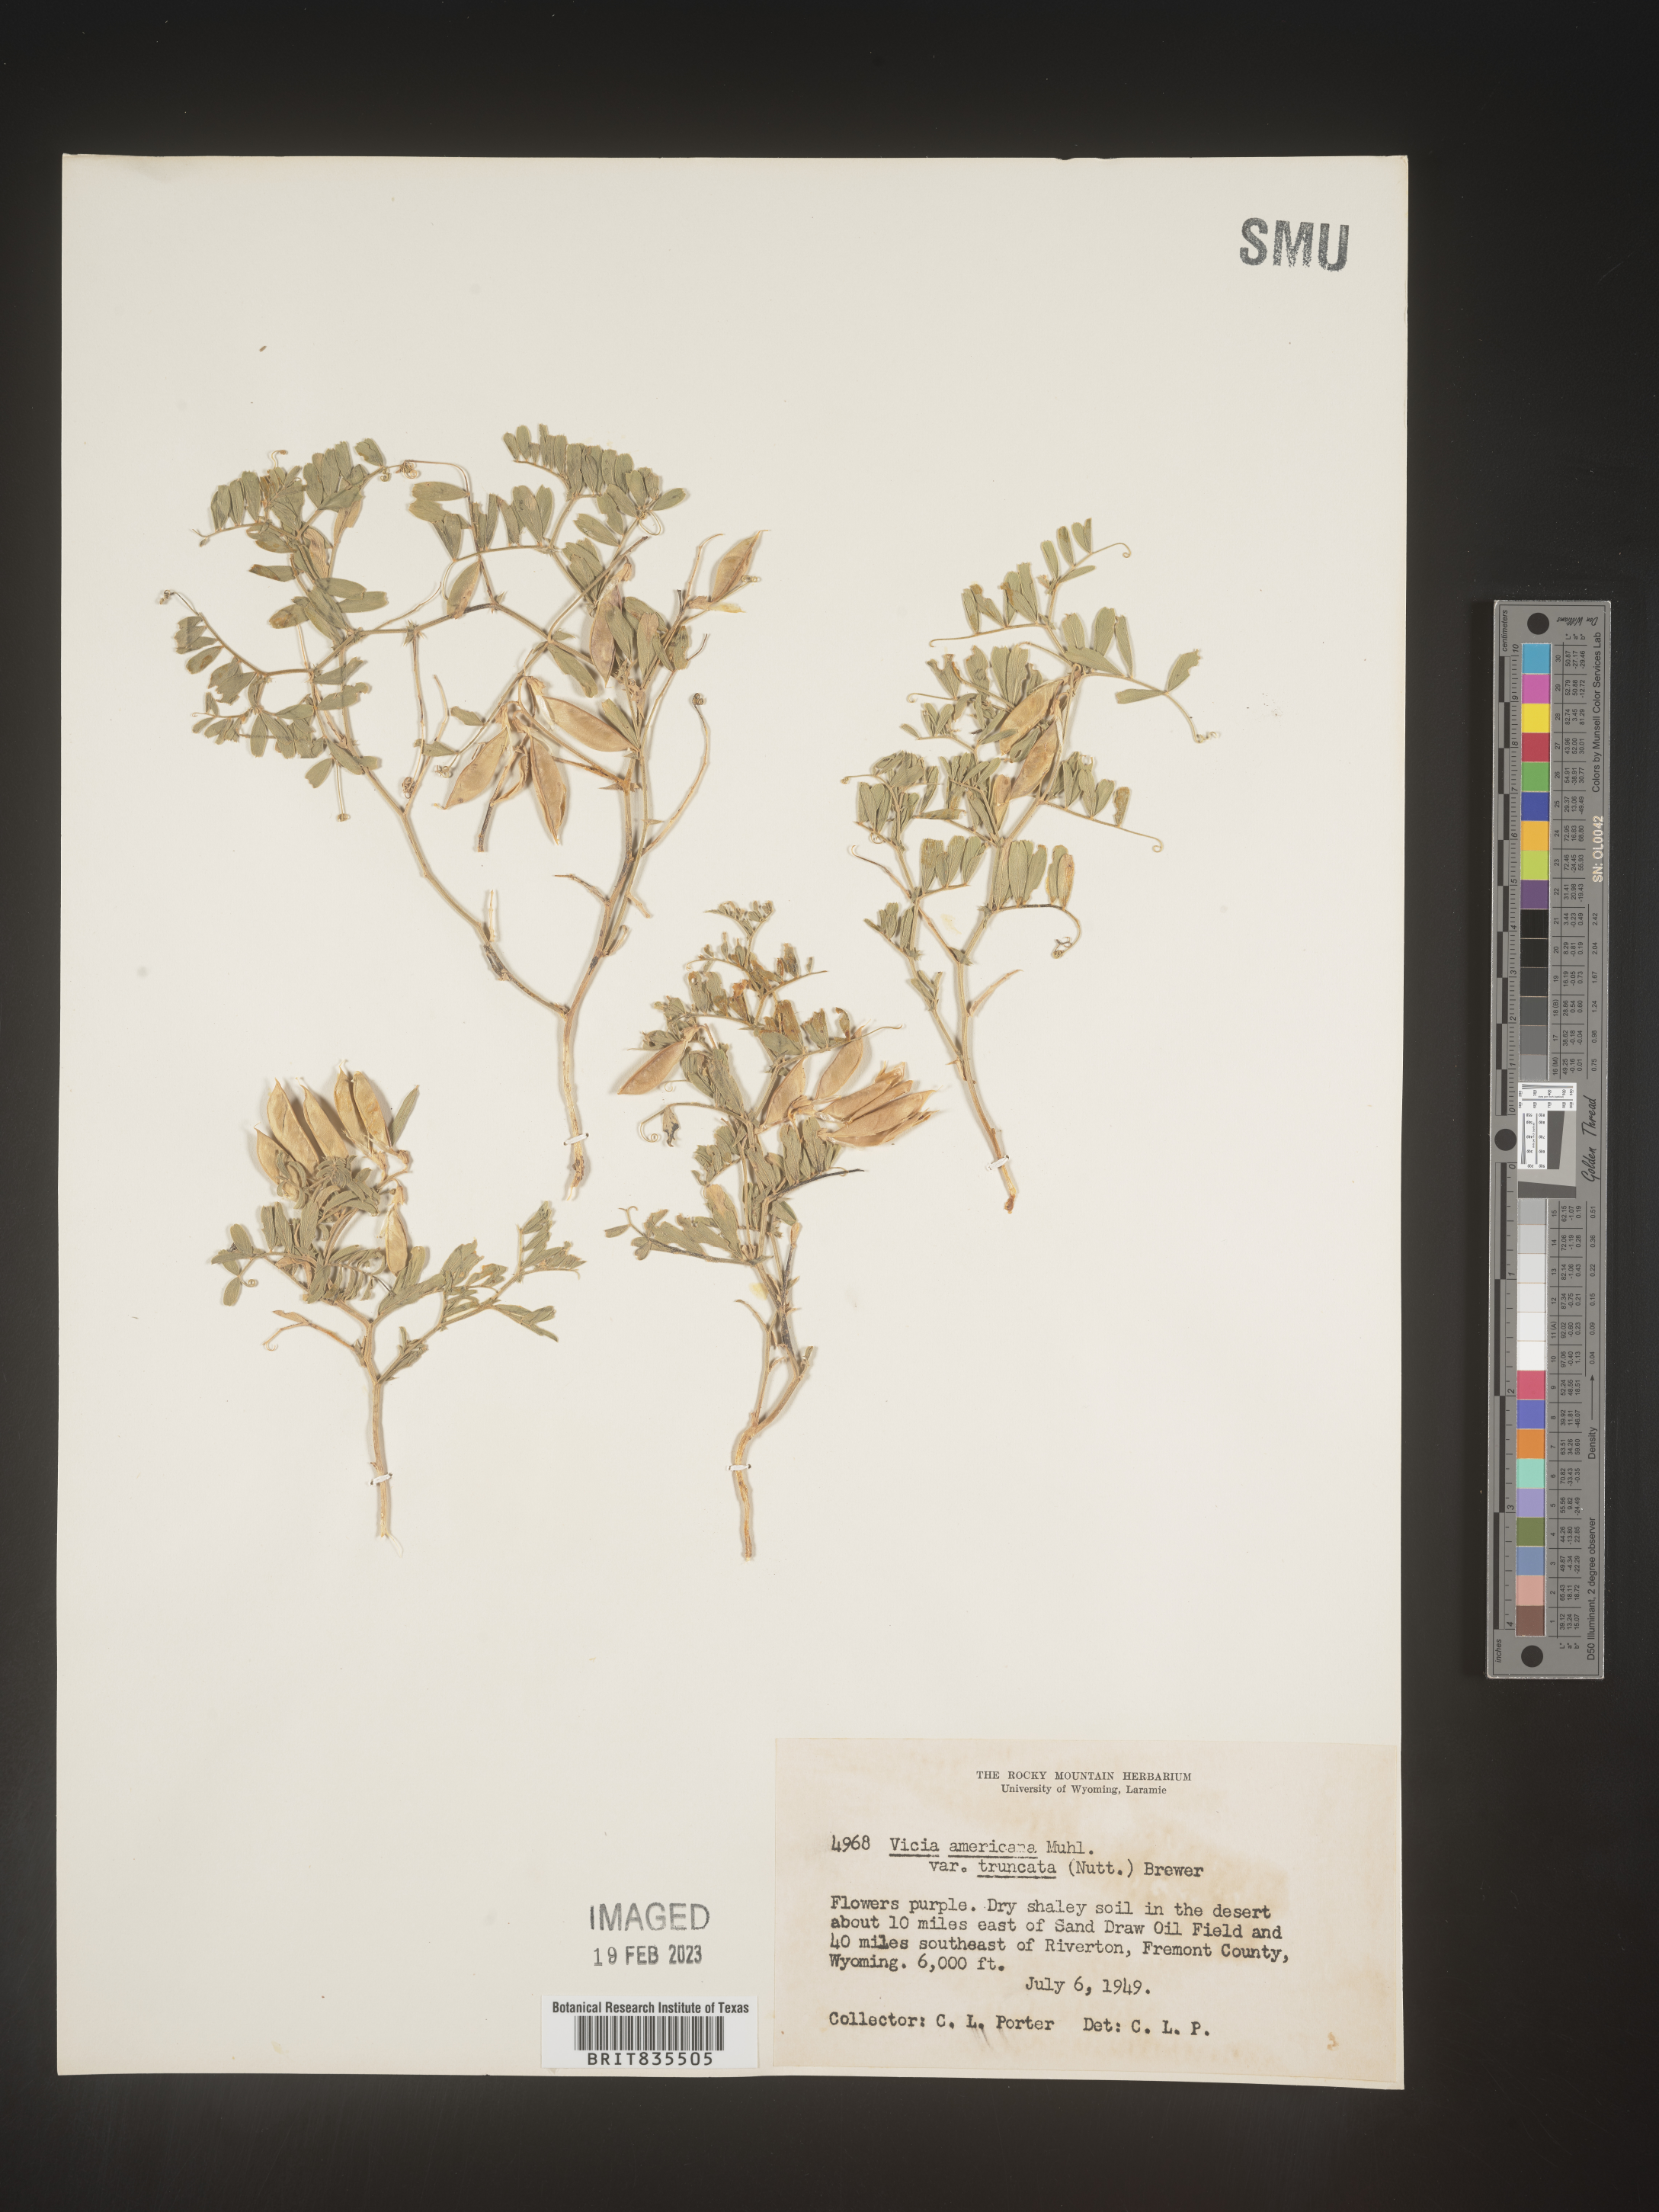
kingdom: Plantae
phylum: Tracheophyta
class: Magnoliopsida
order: Fabales
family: Fabaceae
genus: Vicia
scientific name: Vicia americana
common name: American vetch
